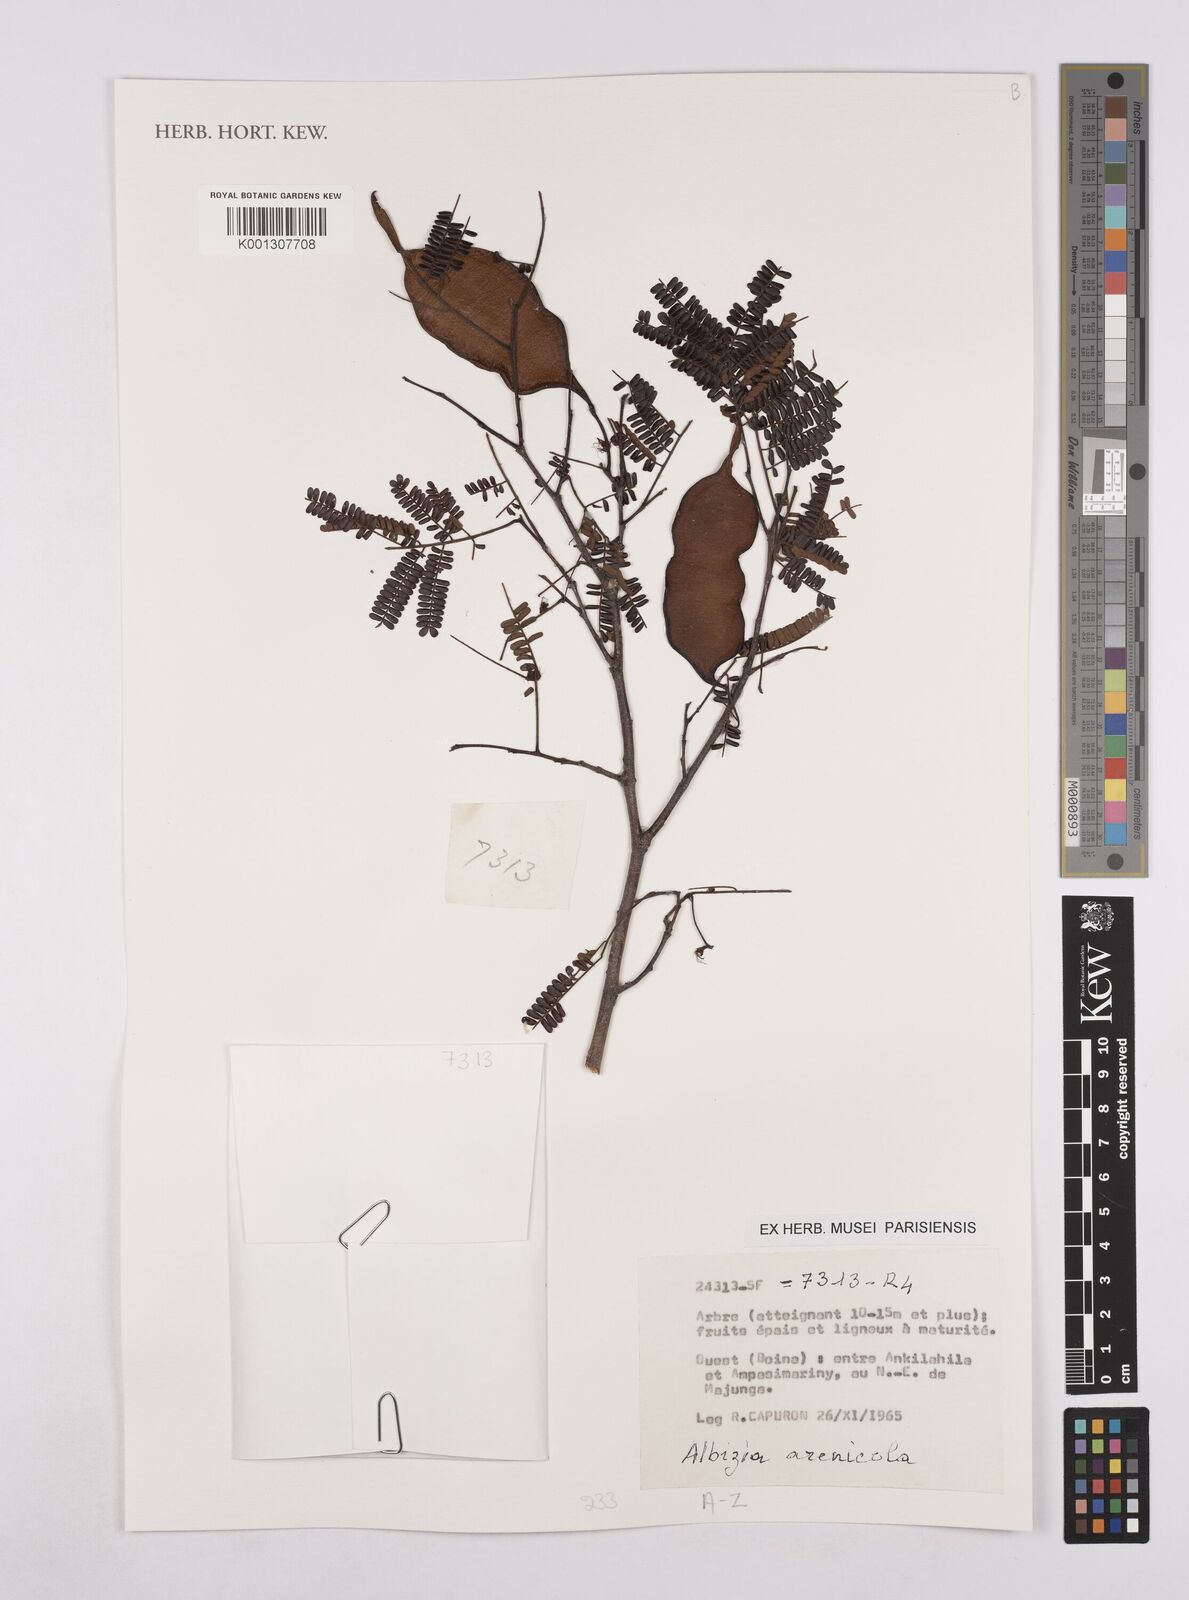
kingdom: Plantae
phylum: Tracheophyta
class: Magnoliopsida
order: Fabales
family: Fabaceae
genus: Albizia
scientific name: Albizia arenicola
